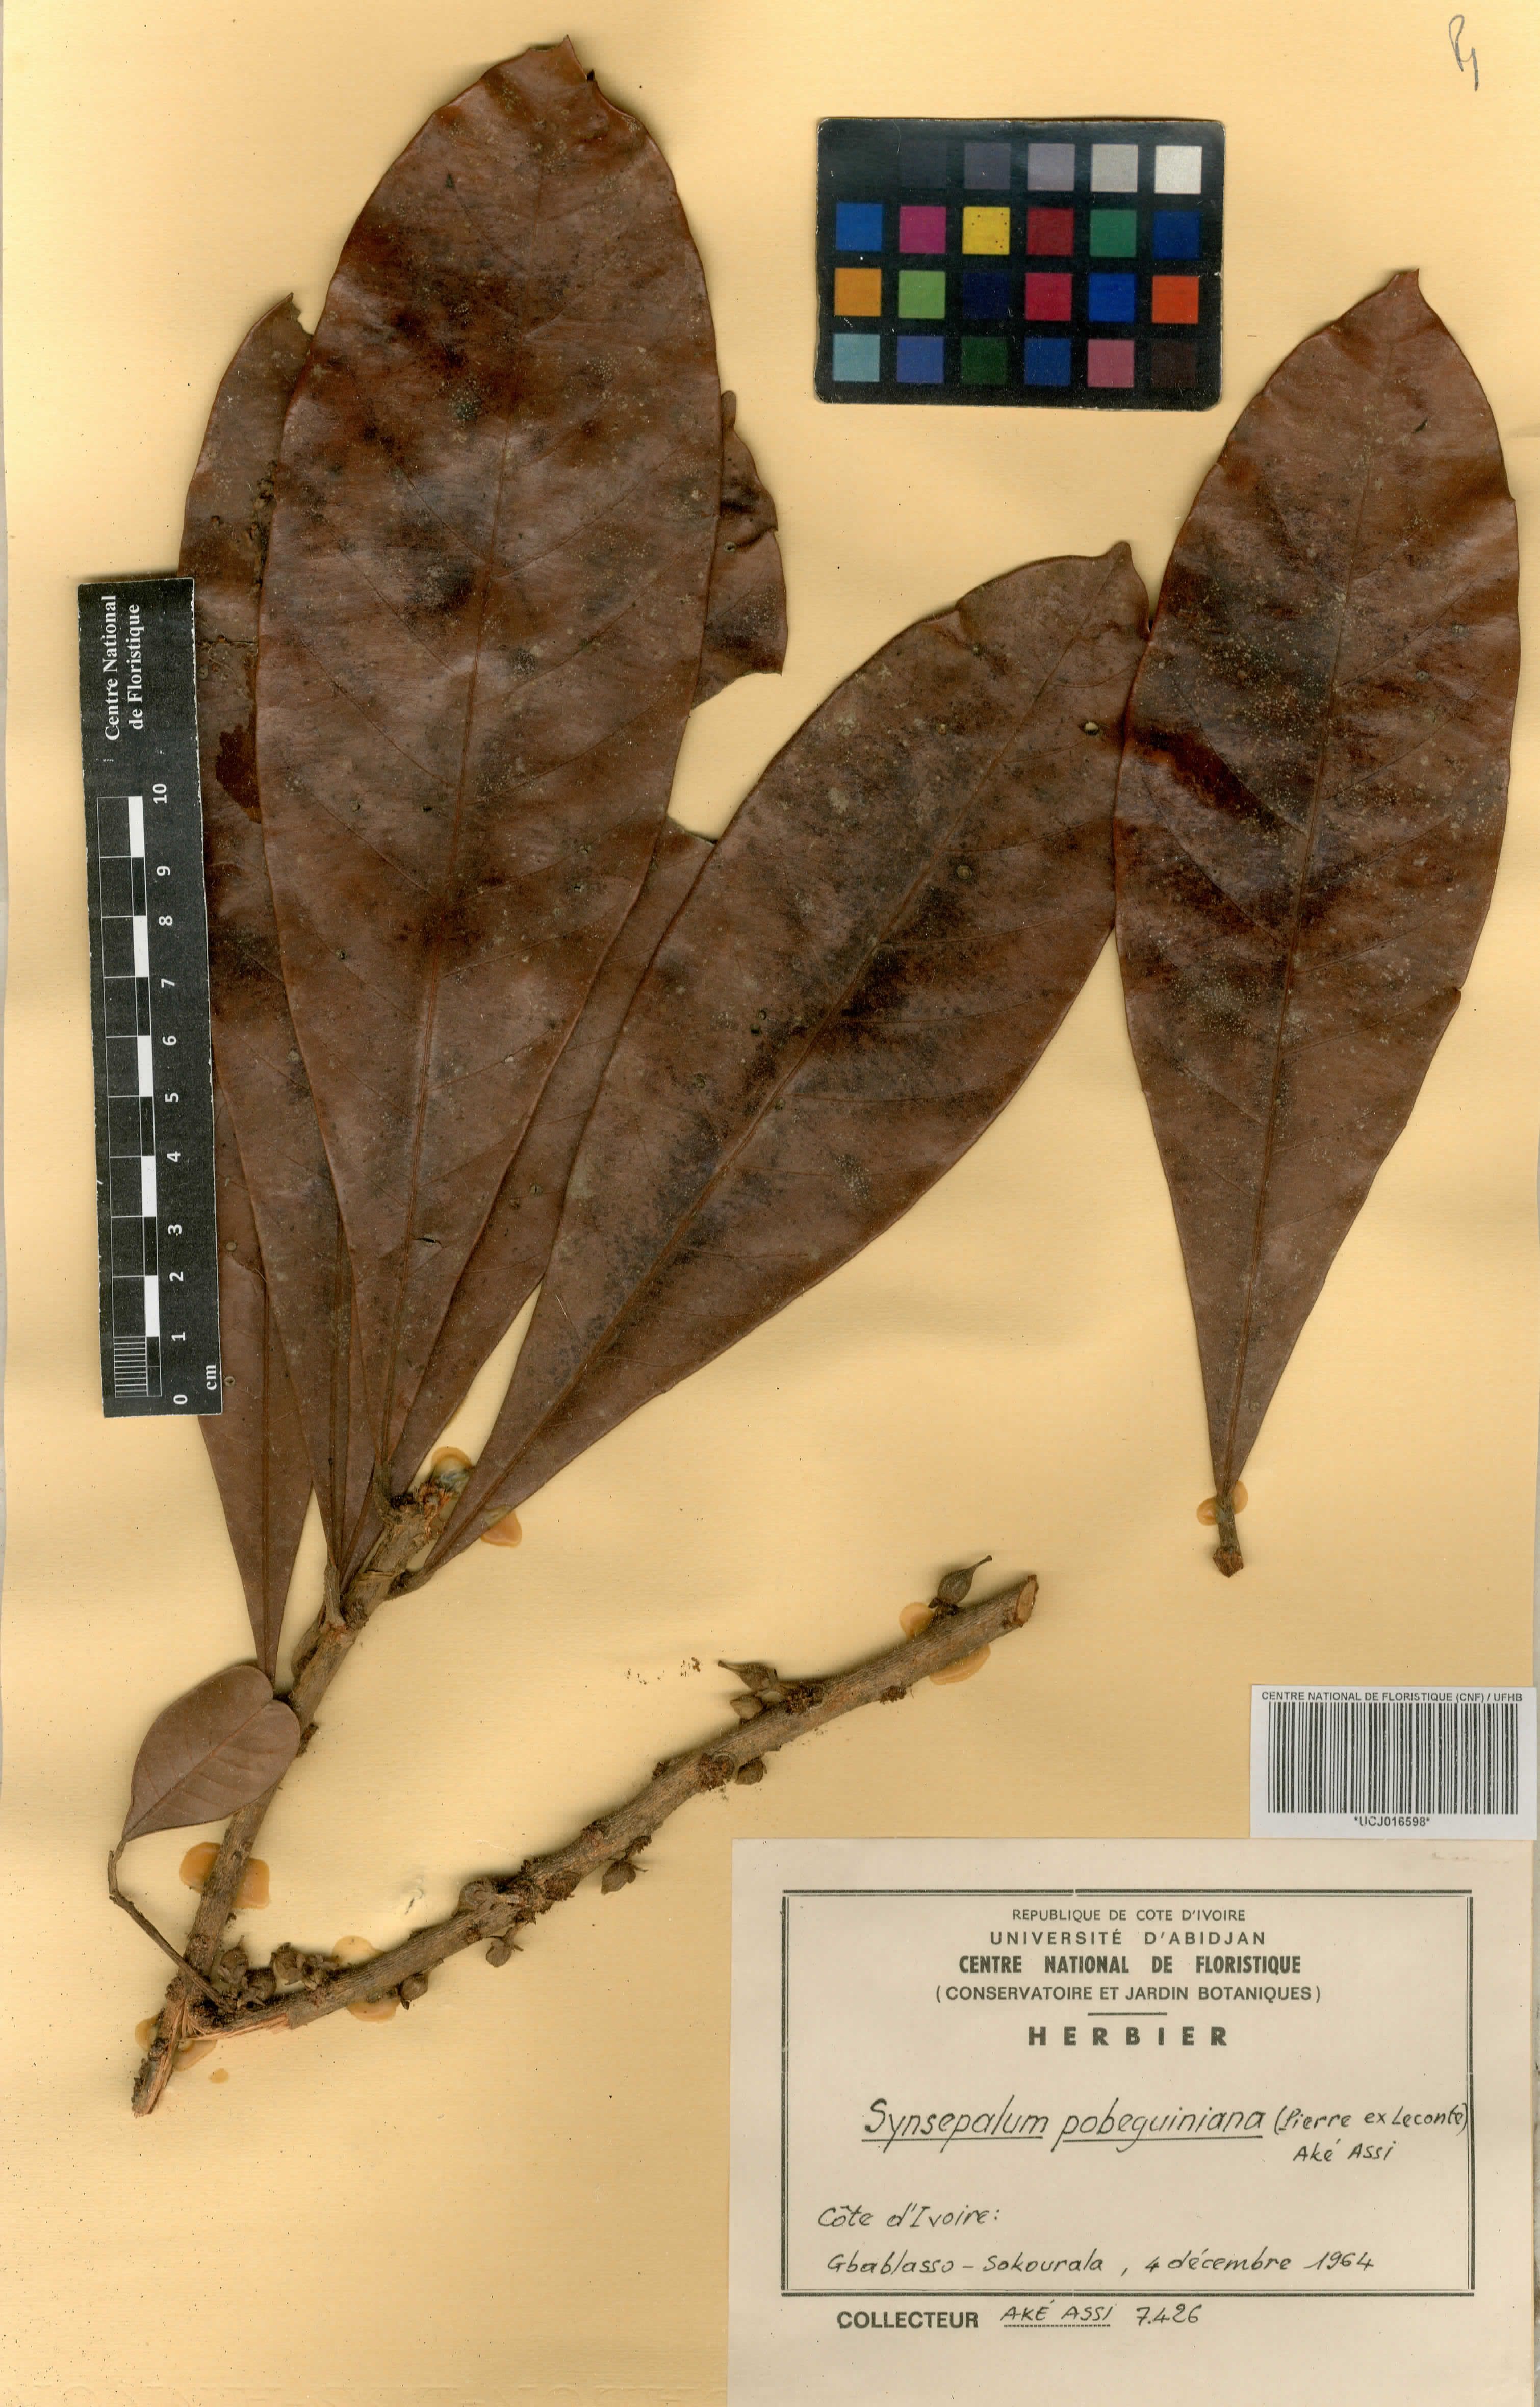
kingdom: Plantae
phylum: Tracheophyta
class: Magnoliopsida
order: Ericales
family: Sapotaceae
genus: Synsepalum
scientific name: Synsepalum pobeguinianum
